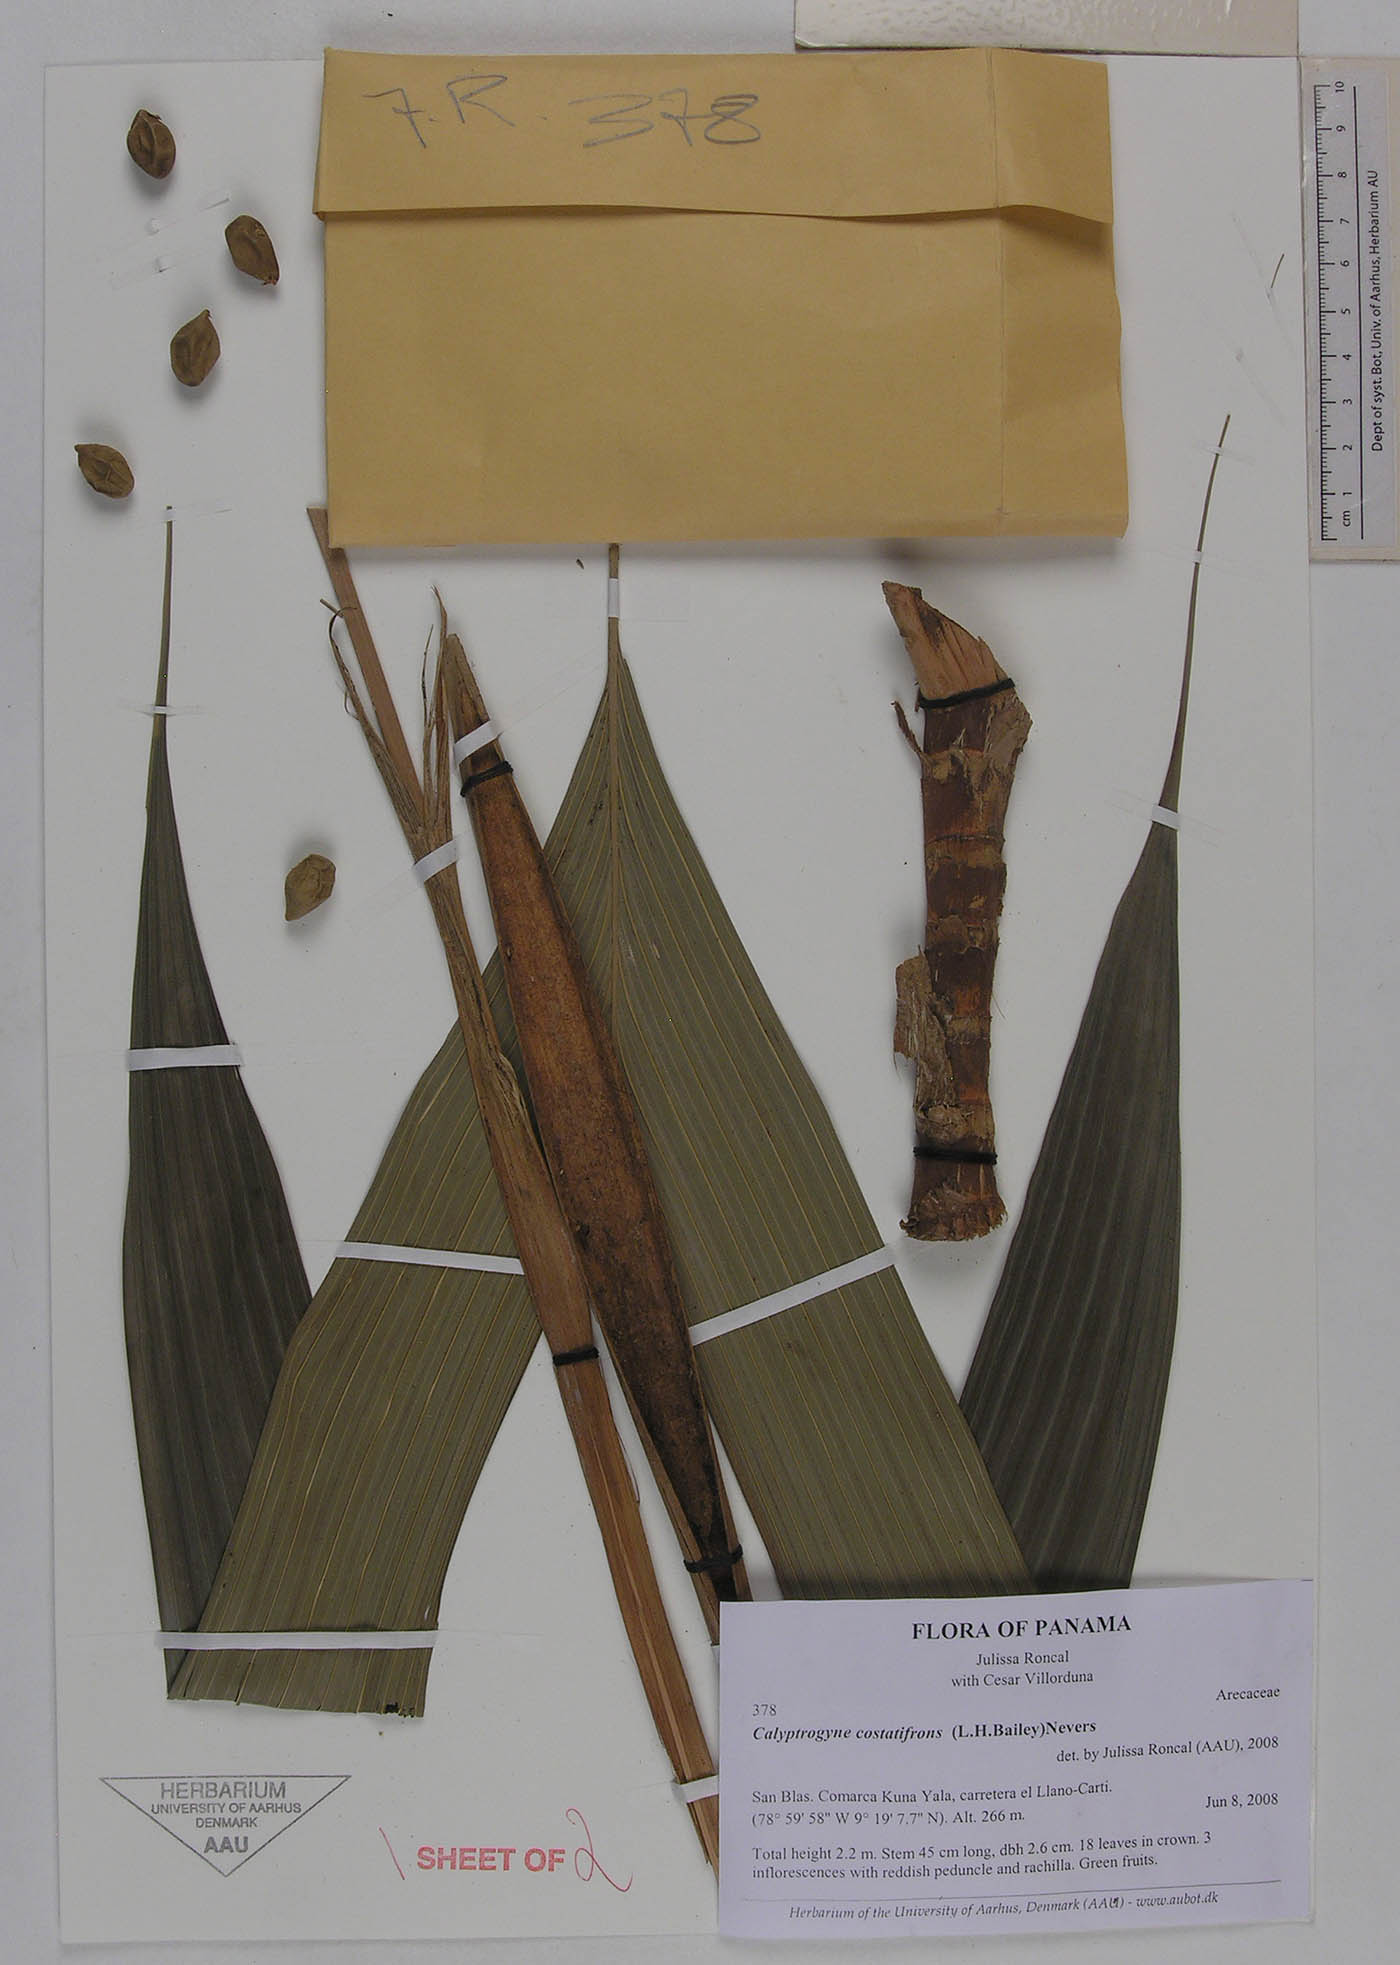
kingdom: Plantae
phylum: Tracheophyta
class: Liliopsida
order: Arecales
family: Arecaceae
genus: Calyptrogyne
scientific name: Calyptrogyne costatifrons
